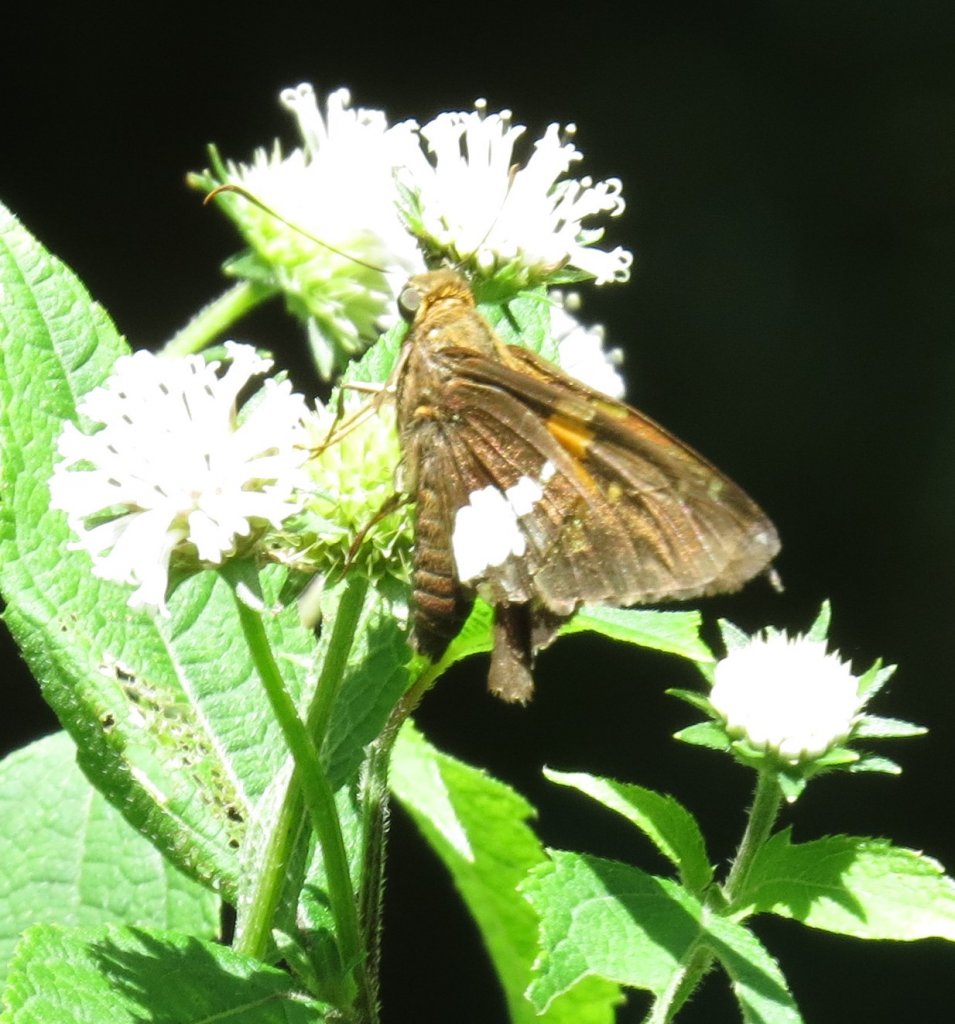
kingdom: Animalia
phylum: Arthropoda
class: Insecta
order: Lepidoptera
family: Hesperiidae
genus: Epargyreus
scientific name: Epargyreus clarus
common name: Silver-spotted Skipper
